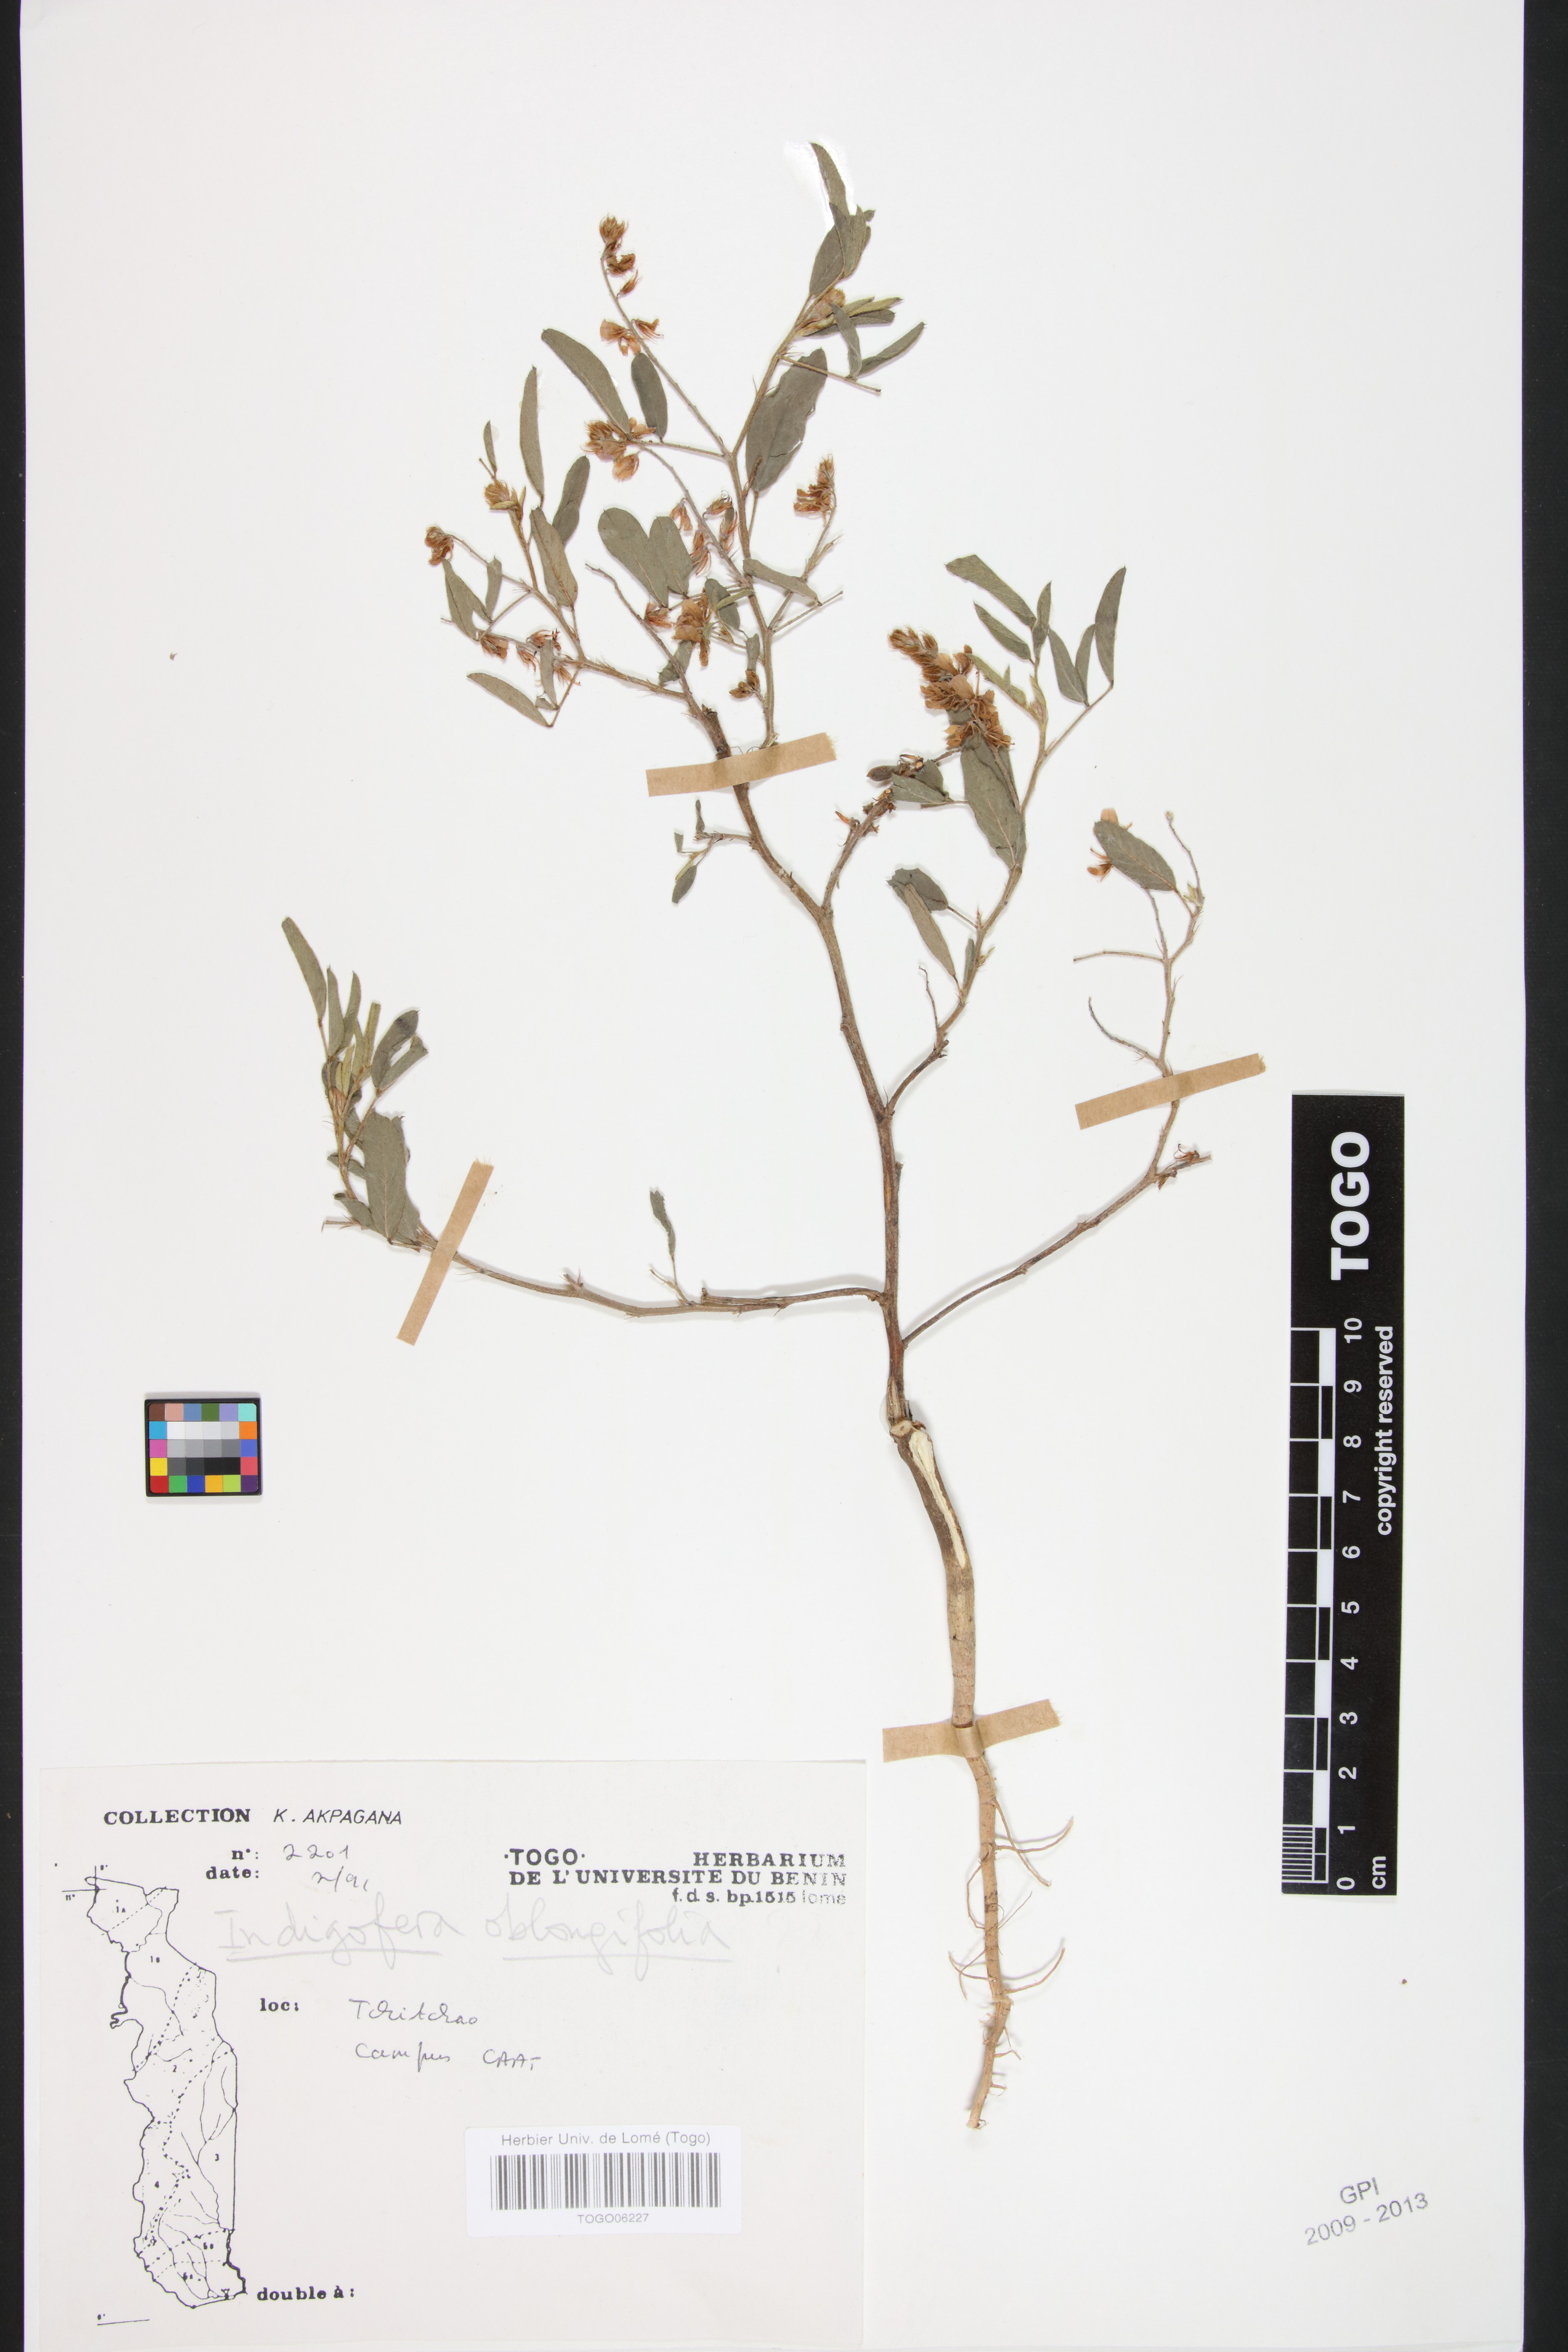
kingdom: Plantae
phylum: Tracheophyta
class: Magnoliopsida
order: Fabales
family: Fabaceae
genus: Indigofera
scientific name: Indigofera oblongifolia
